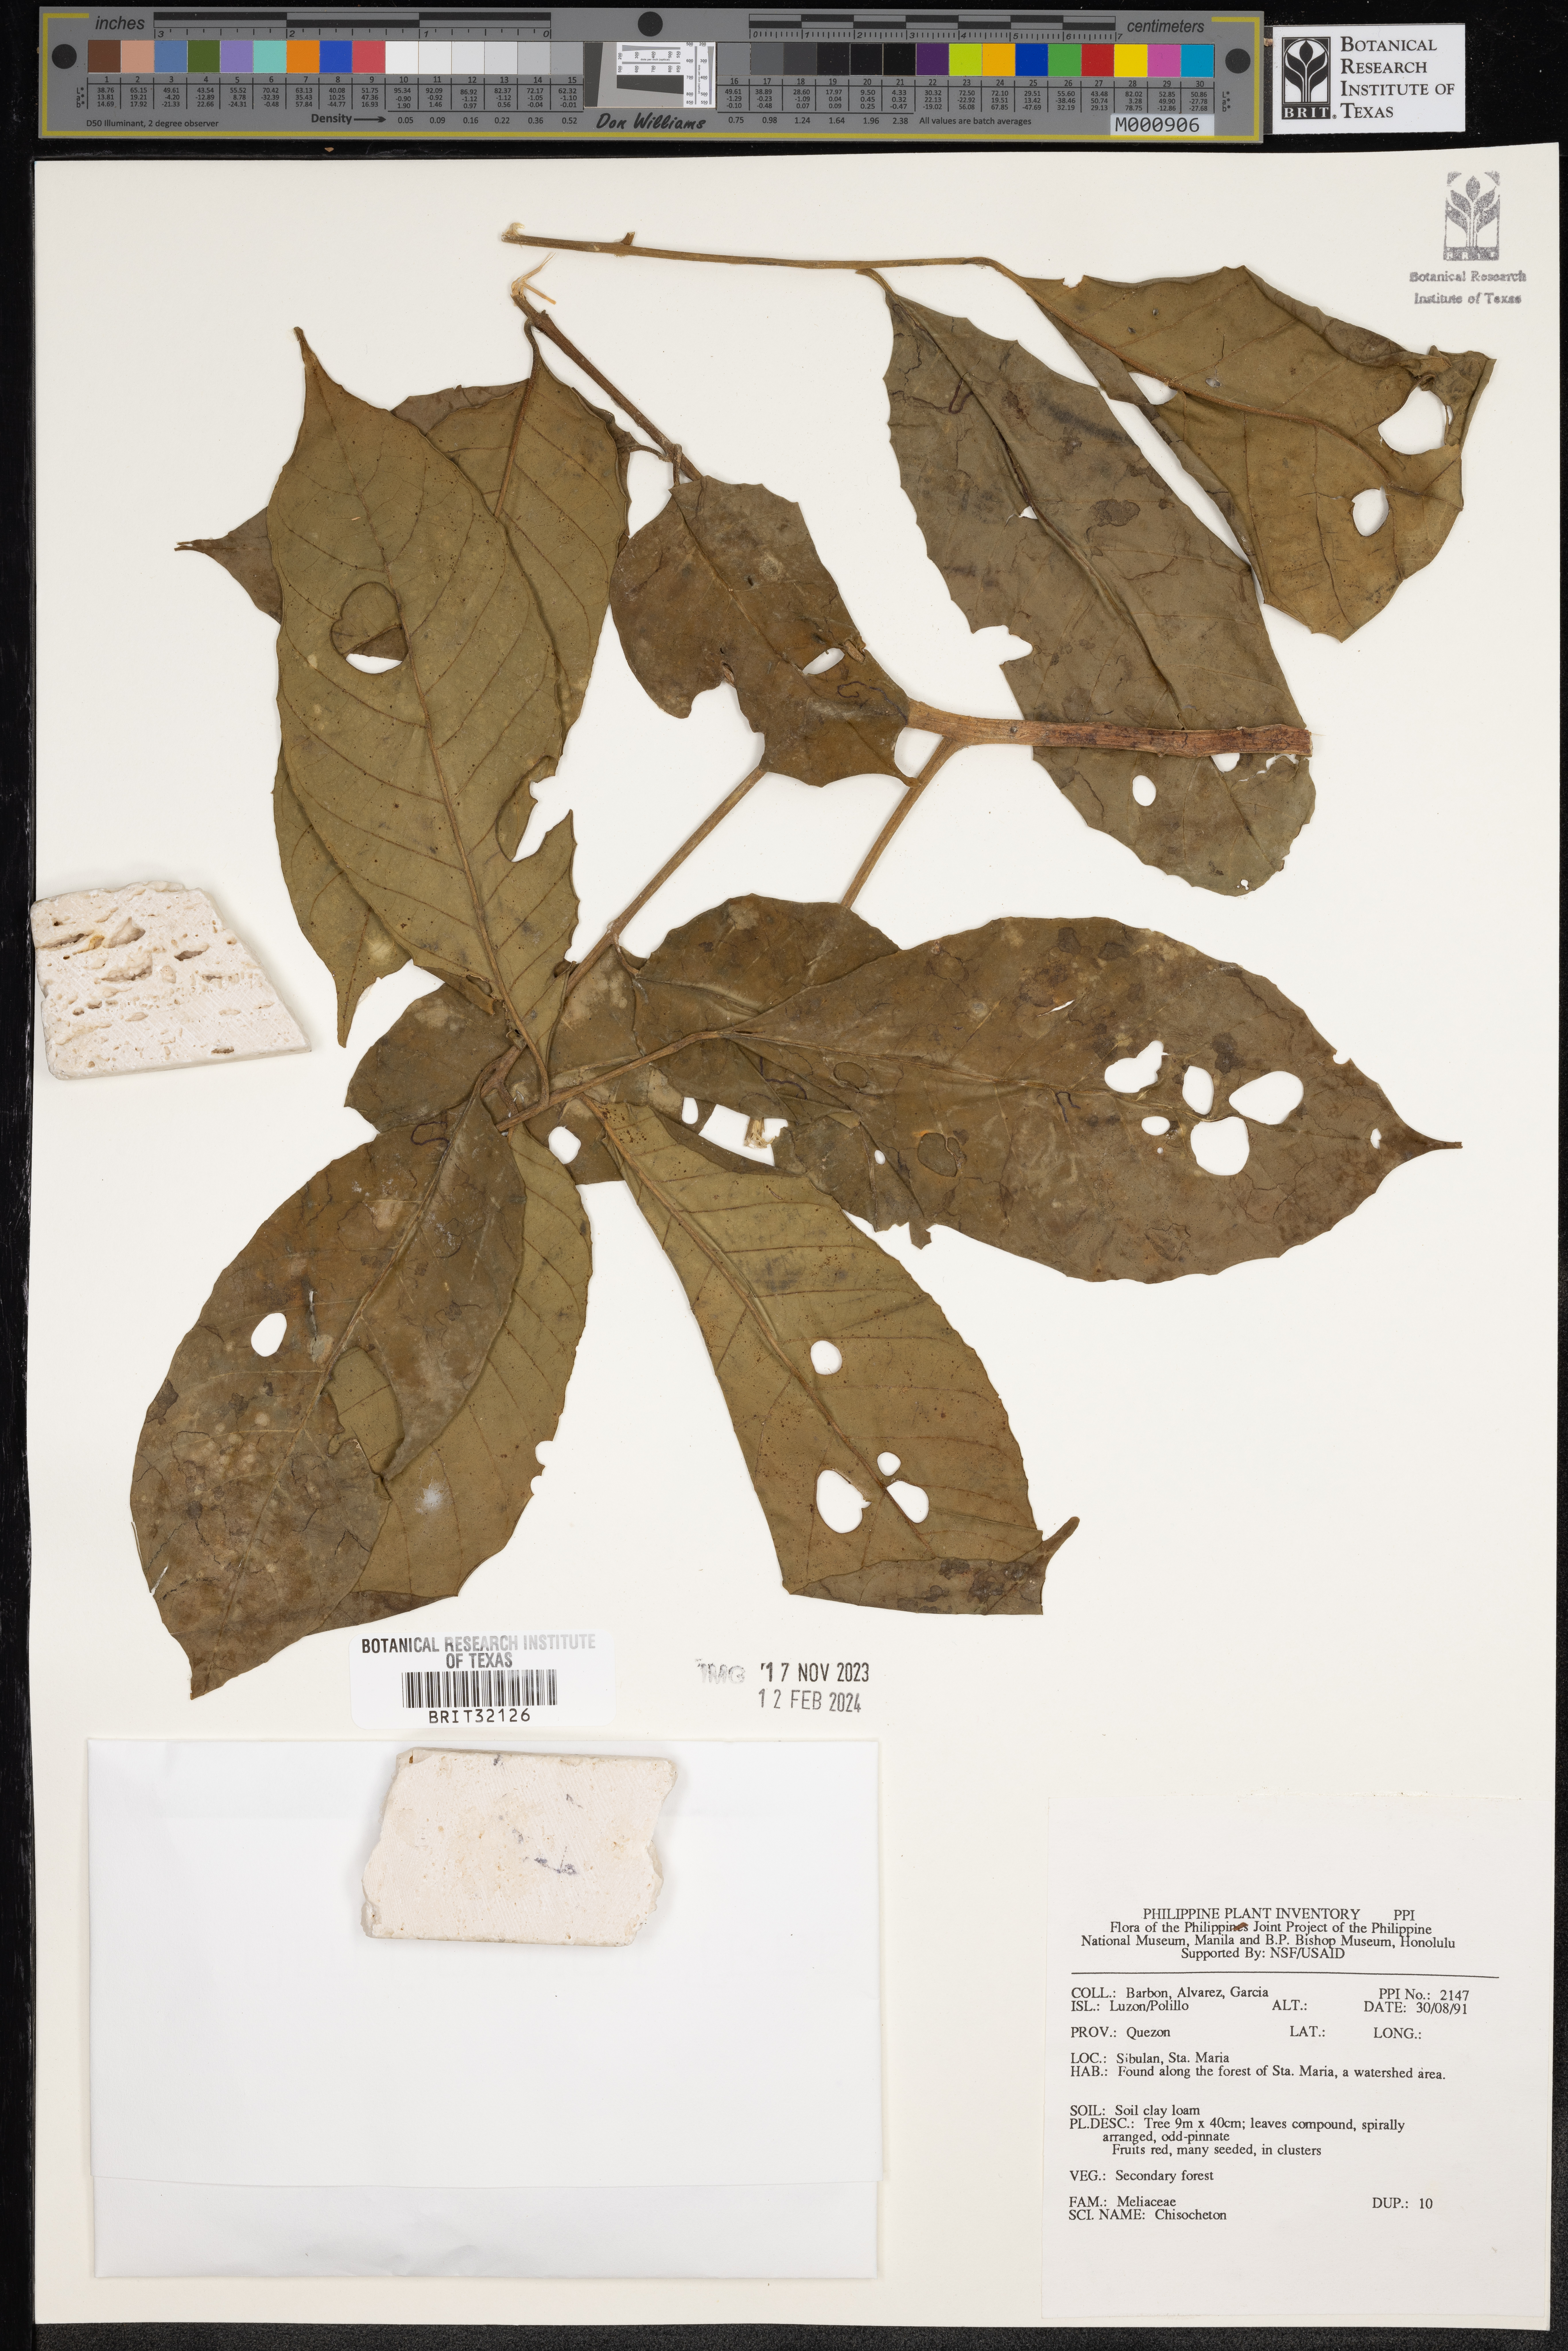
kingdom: Plantae
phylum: Tracheophyta
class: Magnoliopsida
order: Sapindales
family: Meliaceae
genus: Chisocheton
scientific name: Chisocheton
